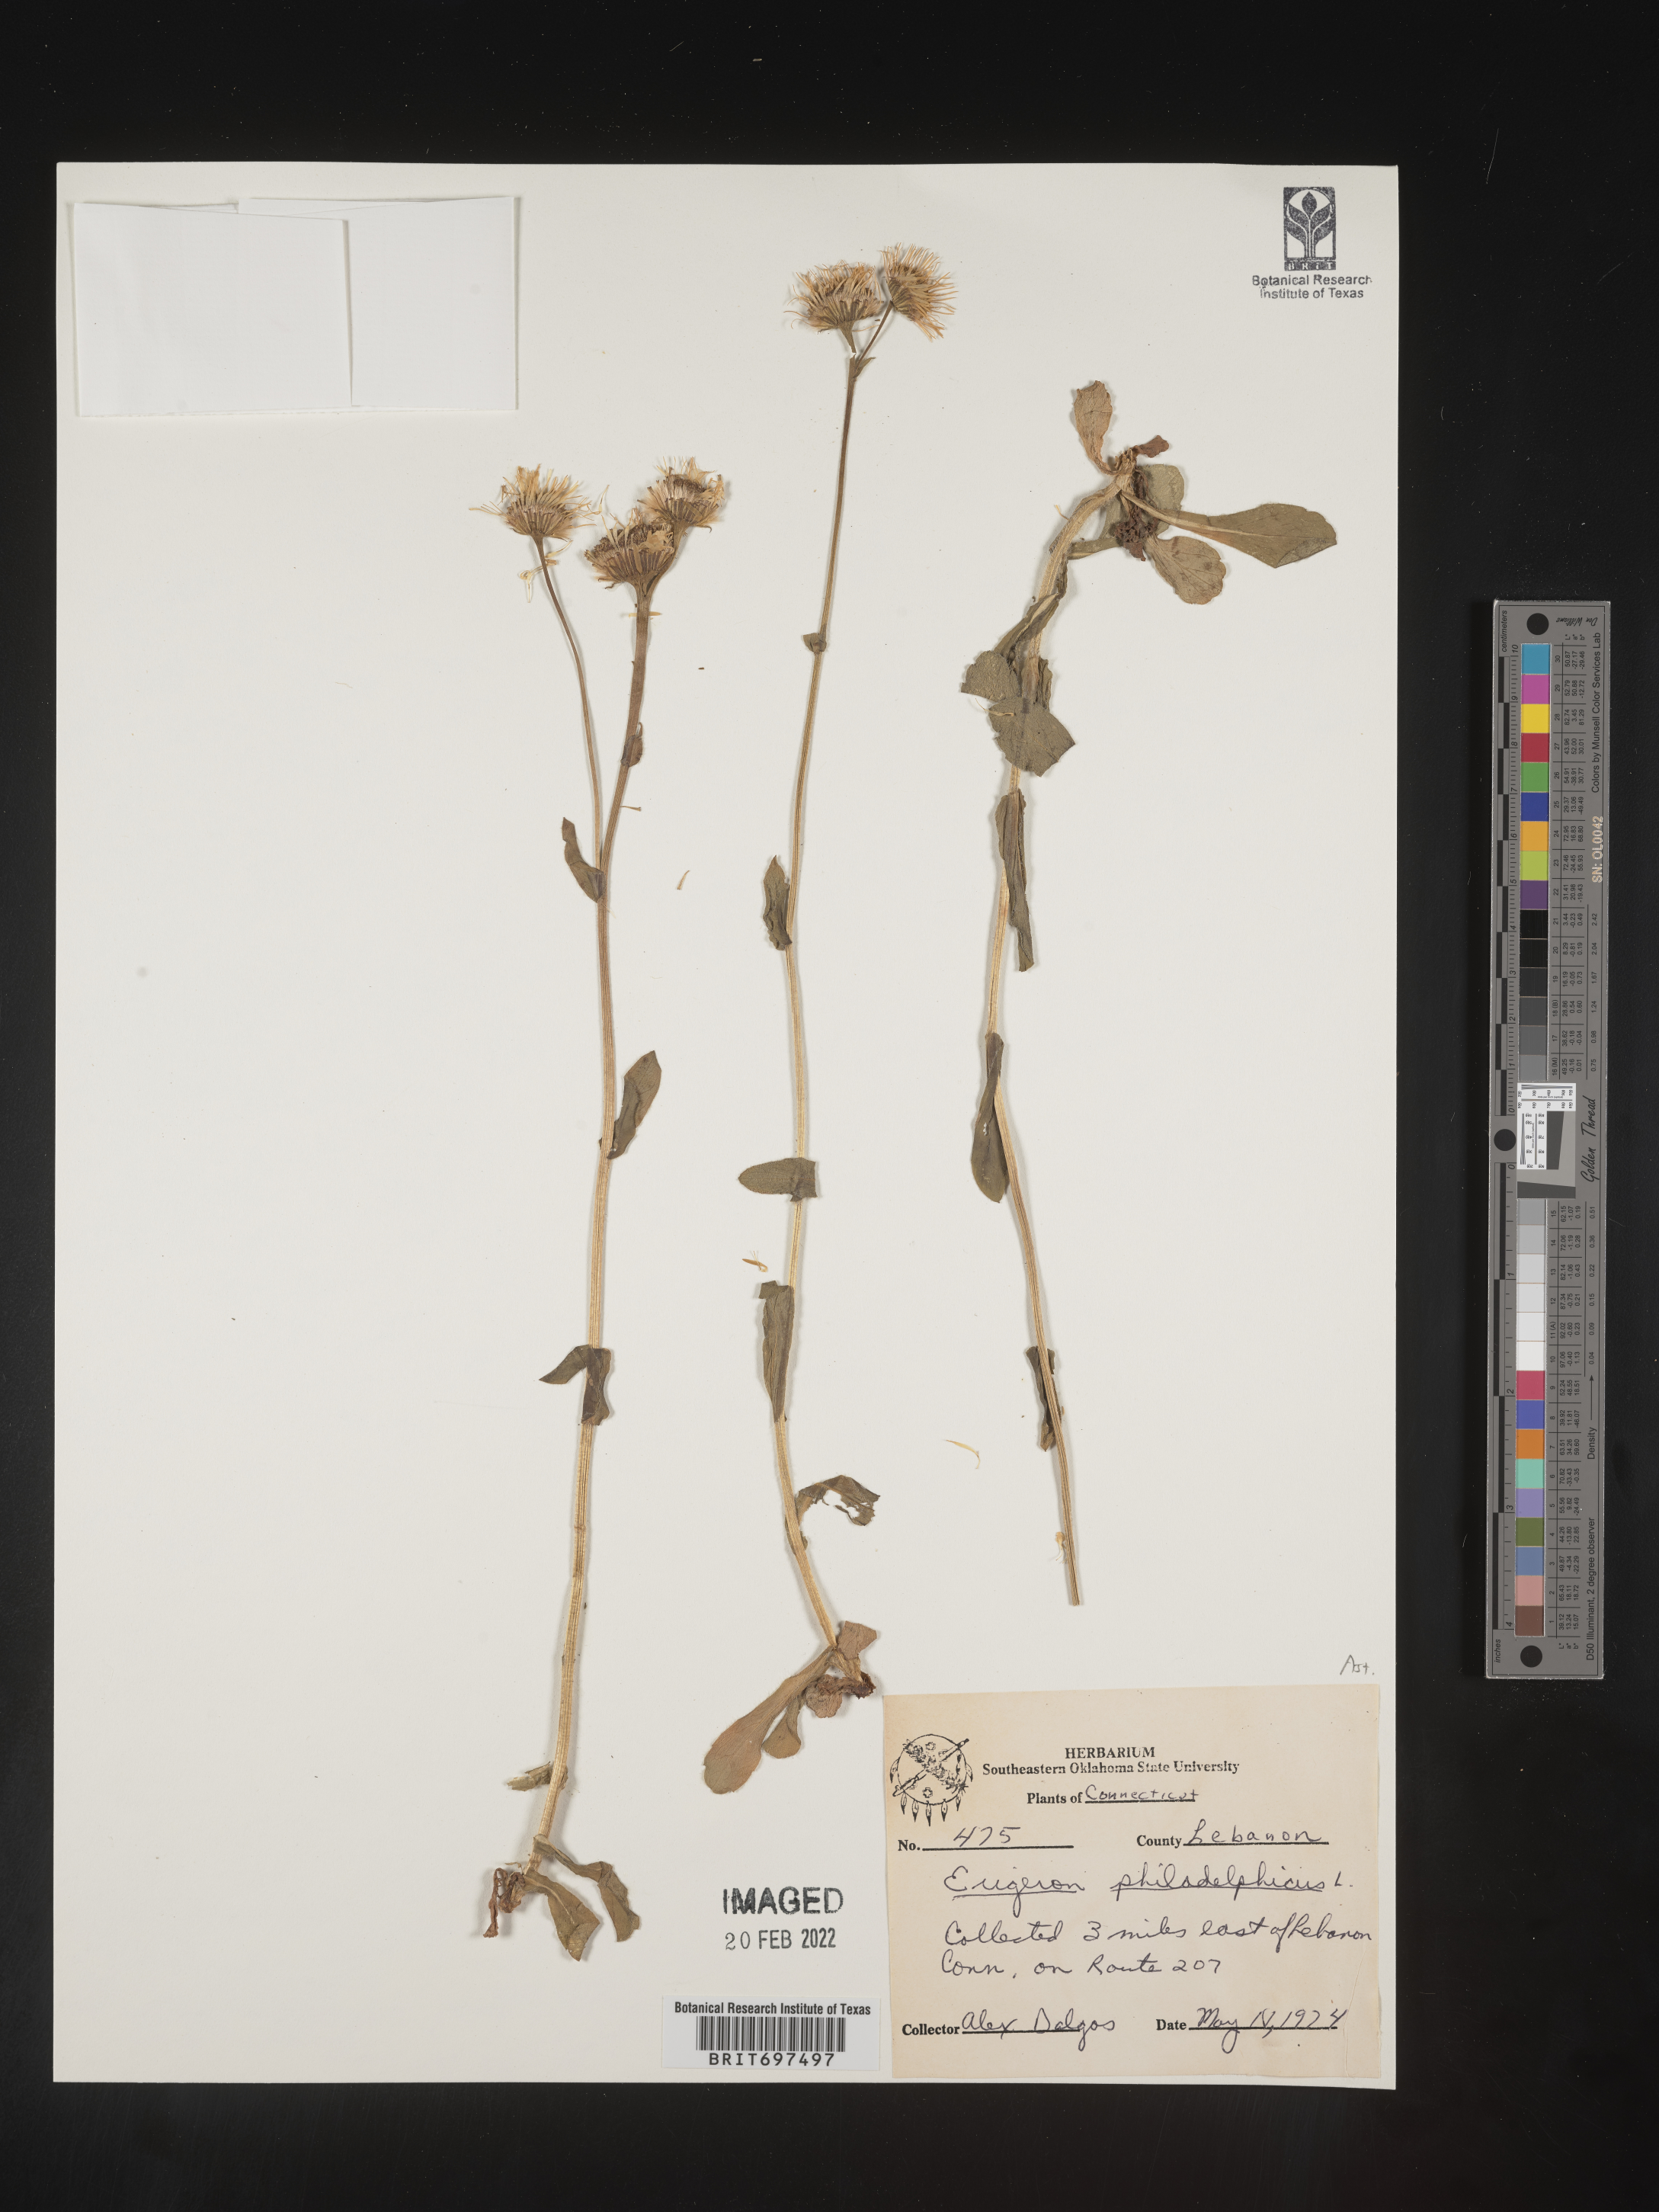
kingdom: Plantae
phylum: Tracheophyta
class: Magnoliopsida
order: Asterales
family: Asteraceae
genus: Erigeron
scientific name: Erigeron philadelphicus
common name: Robin's-plantain
